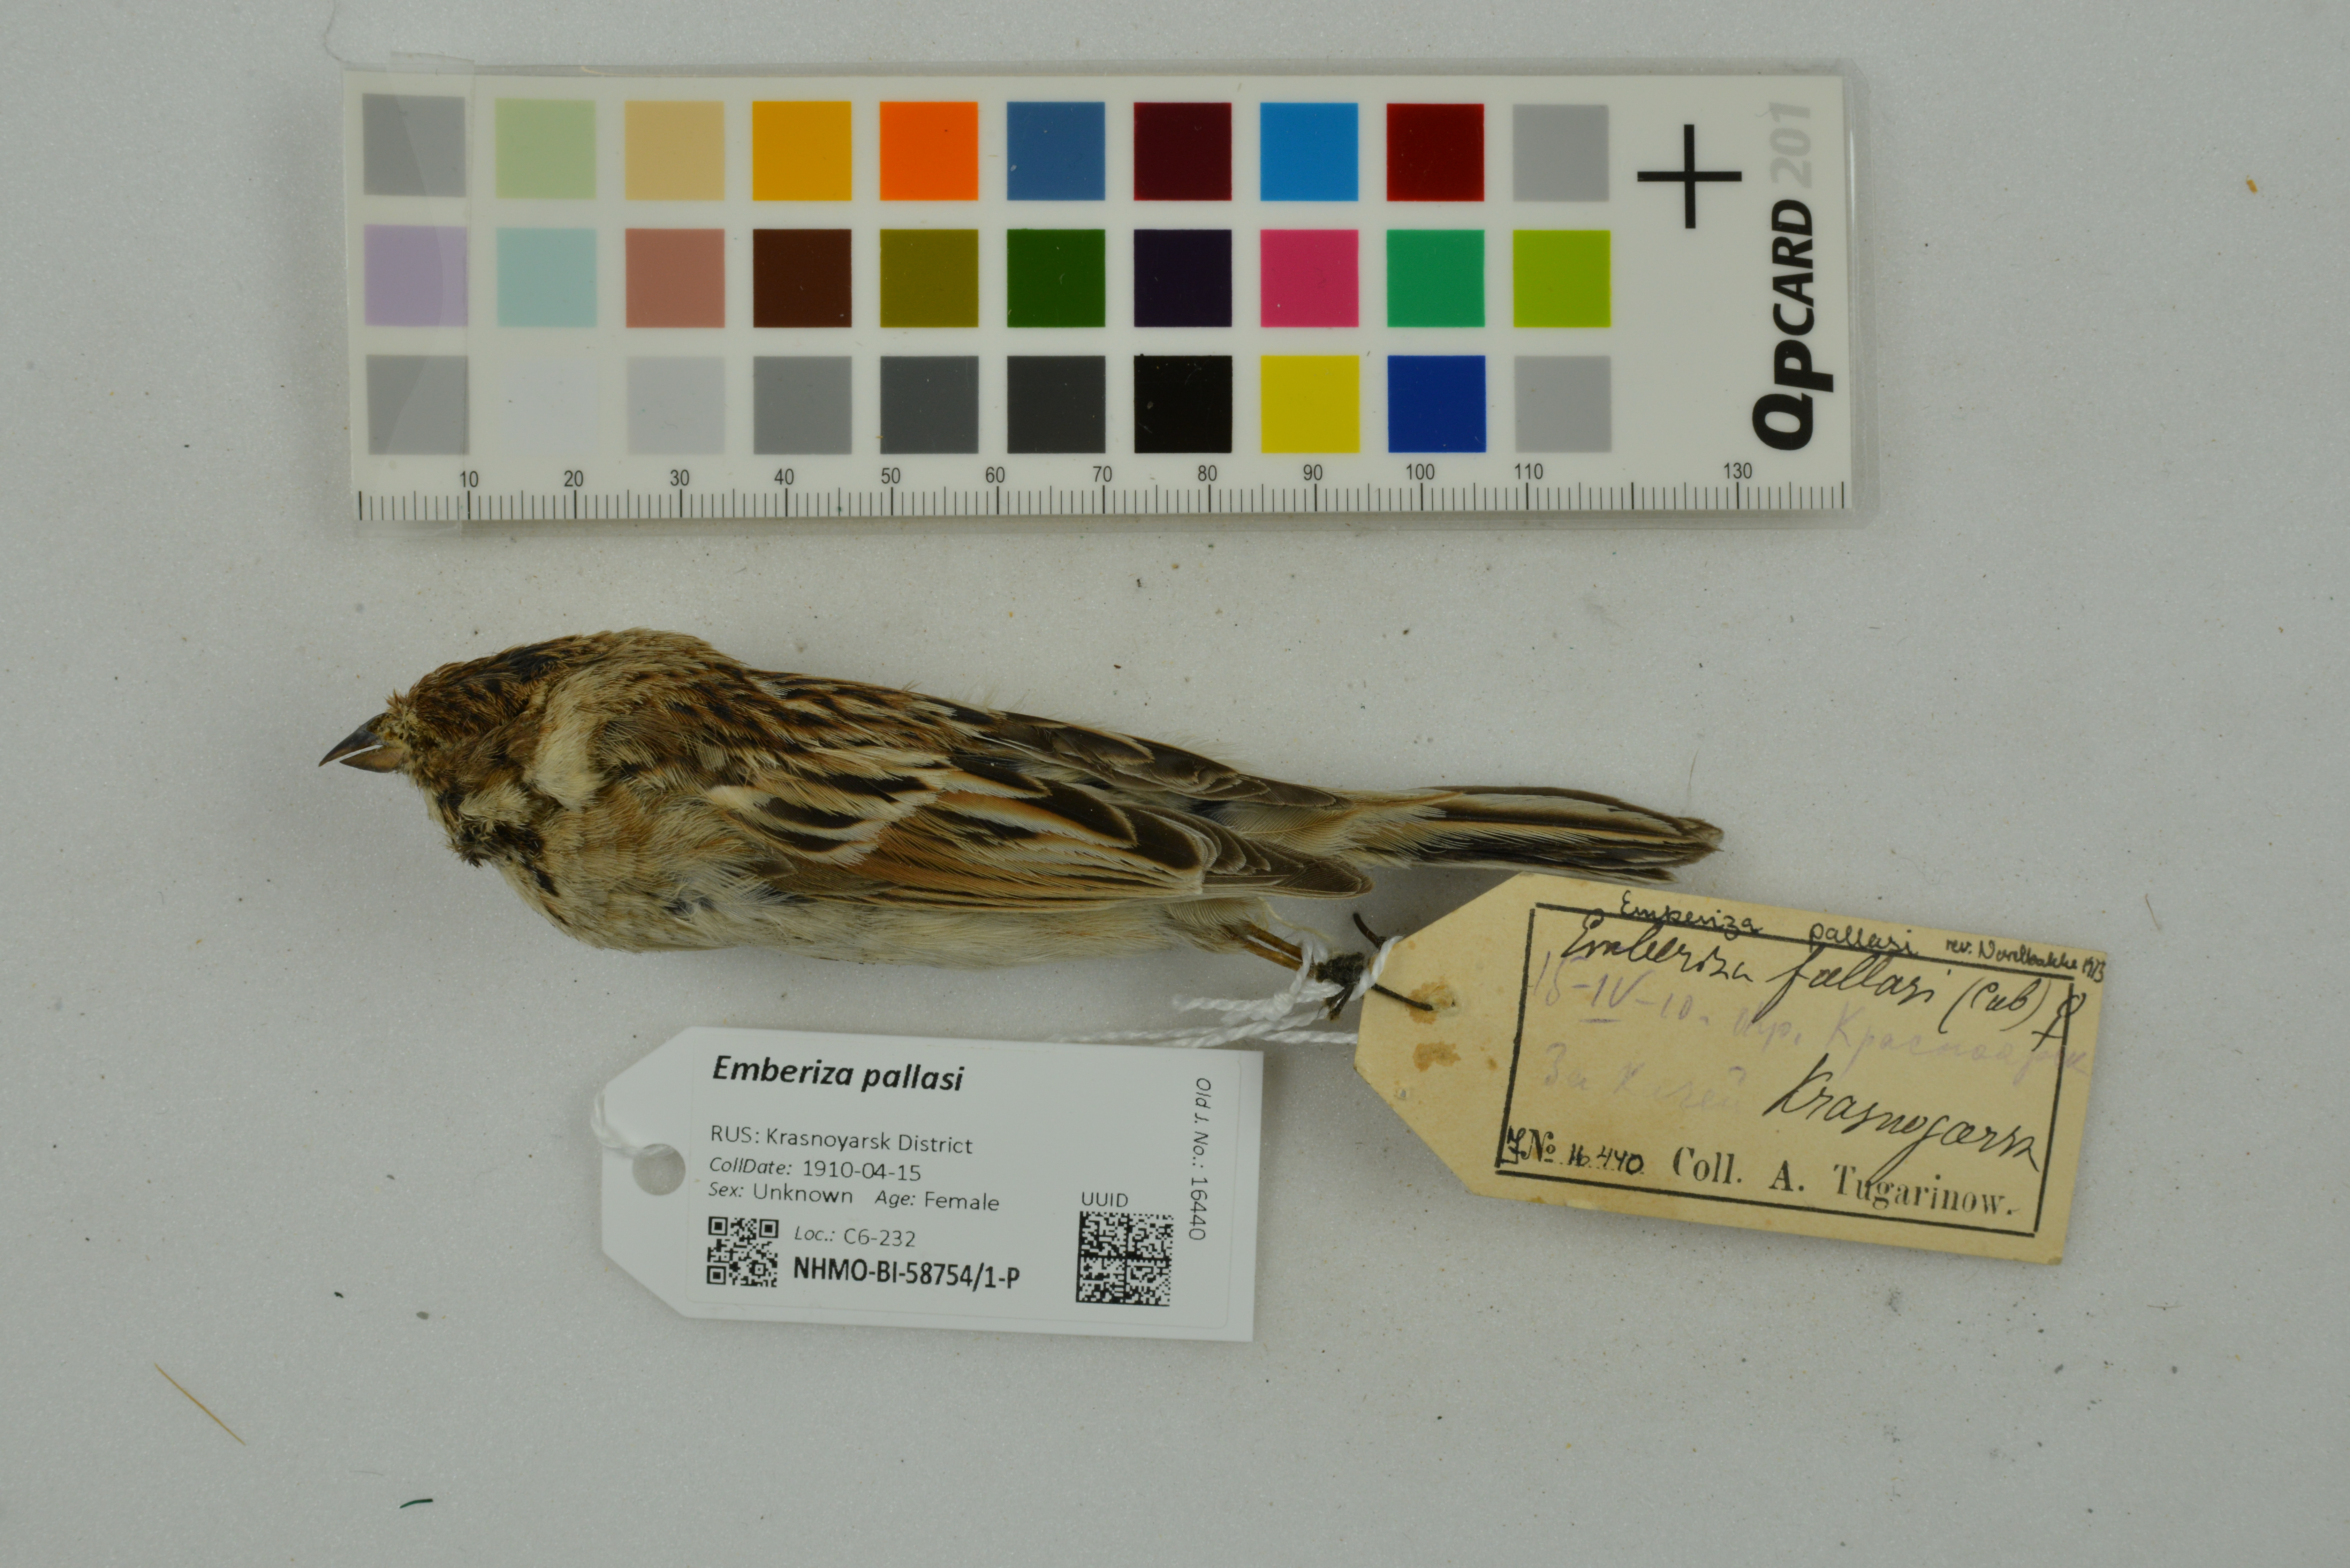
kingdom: Animalia
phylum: Chordata
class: Aves
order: Passeriformes
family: Emberizidae
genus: Emberiza
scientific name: Emberiza pallasi
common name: Pallas's reed bunting
